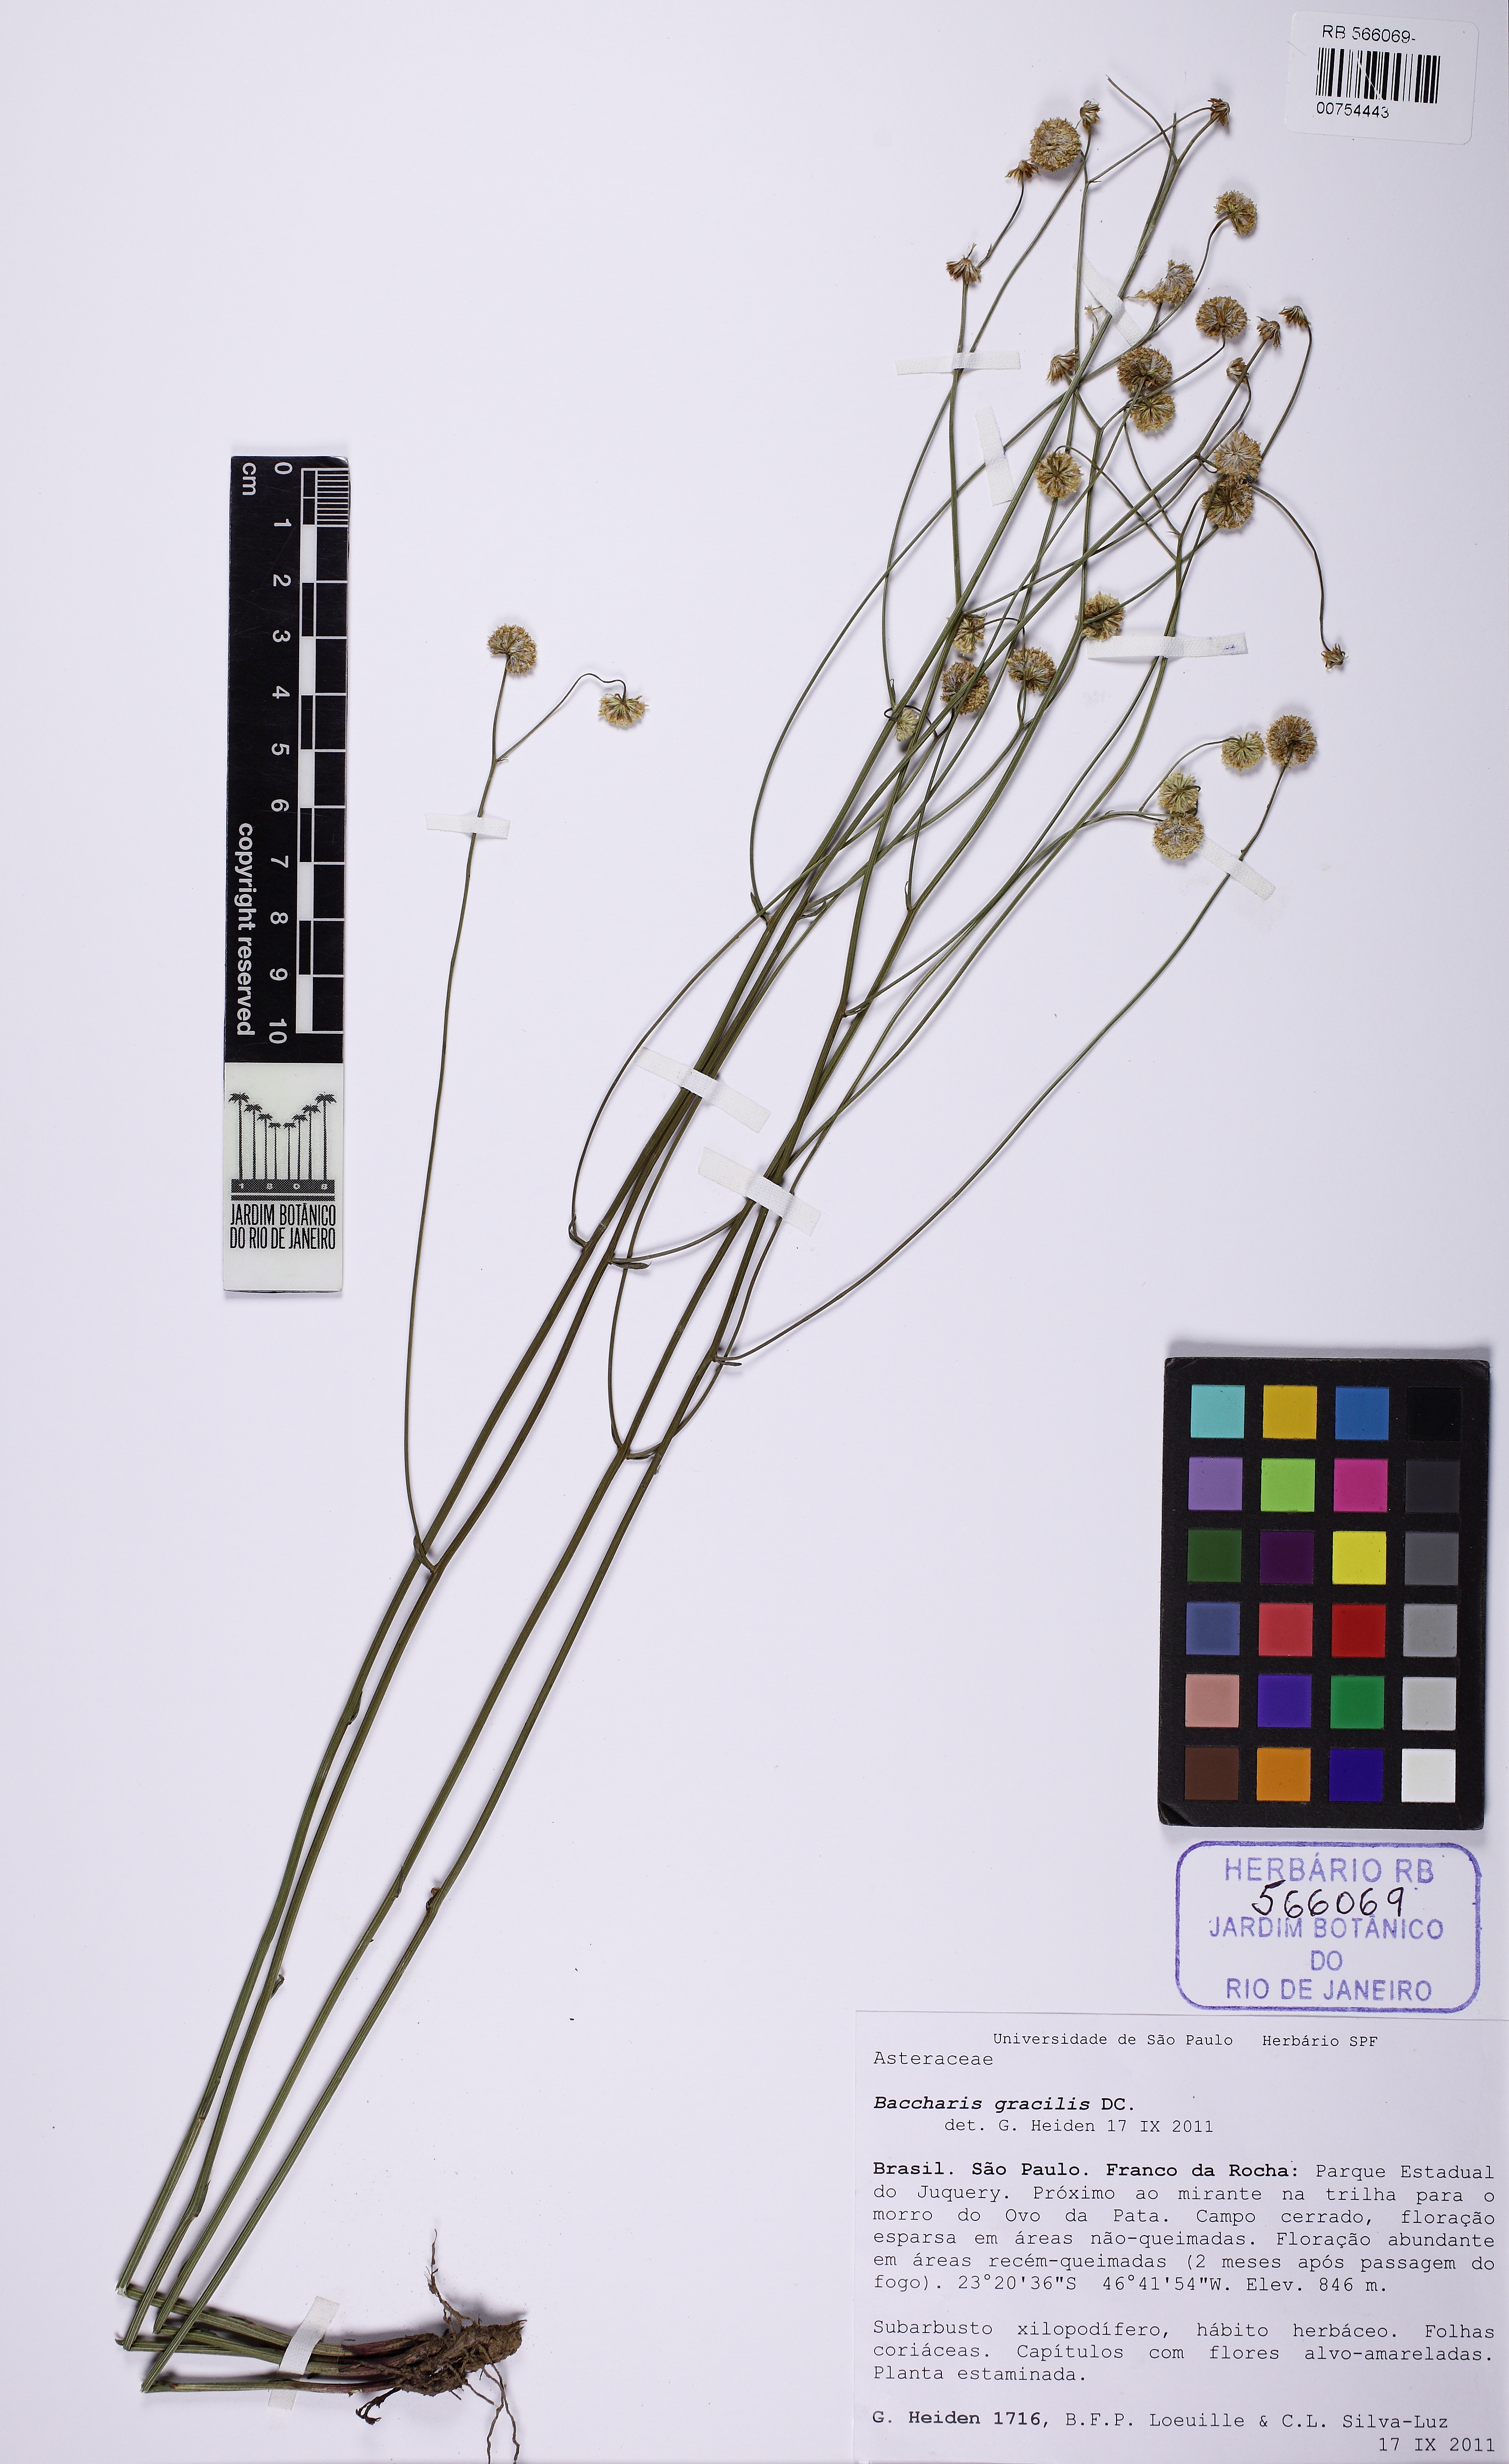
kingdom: Plantae
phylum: Tracheophyta
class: Magnoliopsida
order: Asterales
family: Asteraceae
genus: Baccharis
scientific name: Baccharis gracilis
